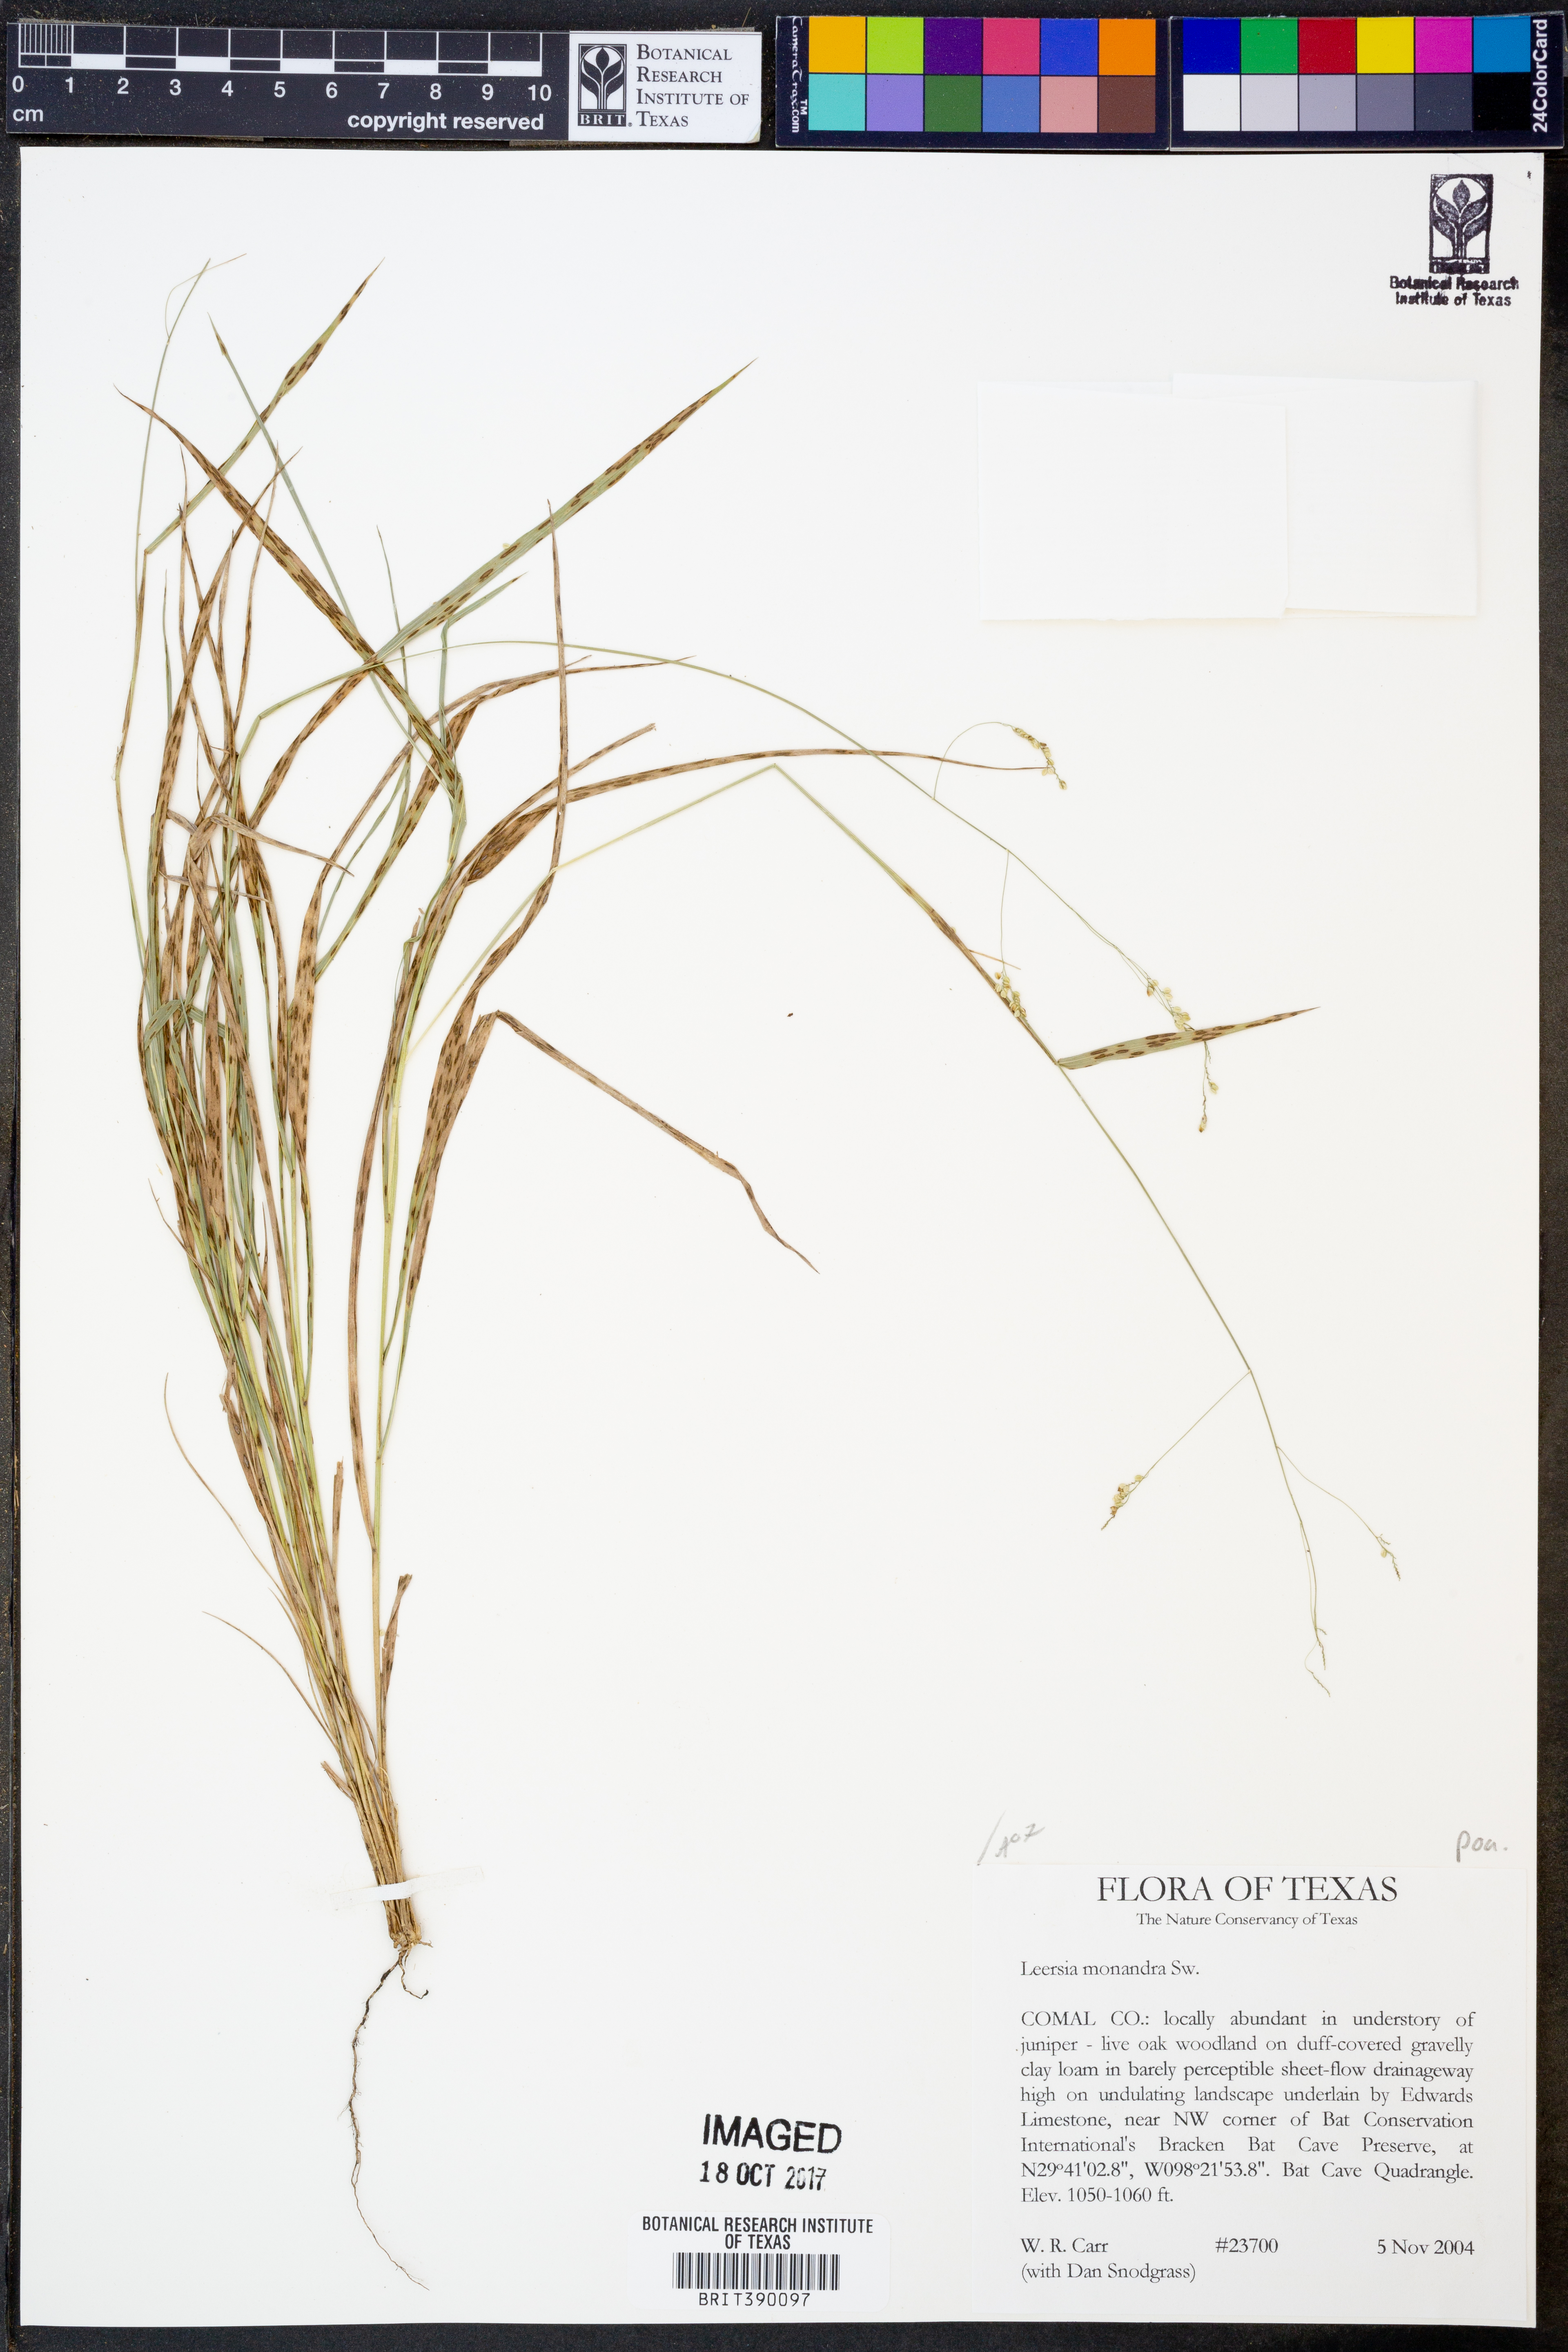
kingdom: Plantae
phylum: Tracheophyta
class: Liliopsida
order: Poales
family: Poaceae
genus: Leersia
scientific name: Leersia monandra
